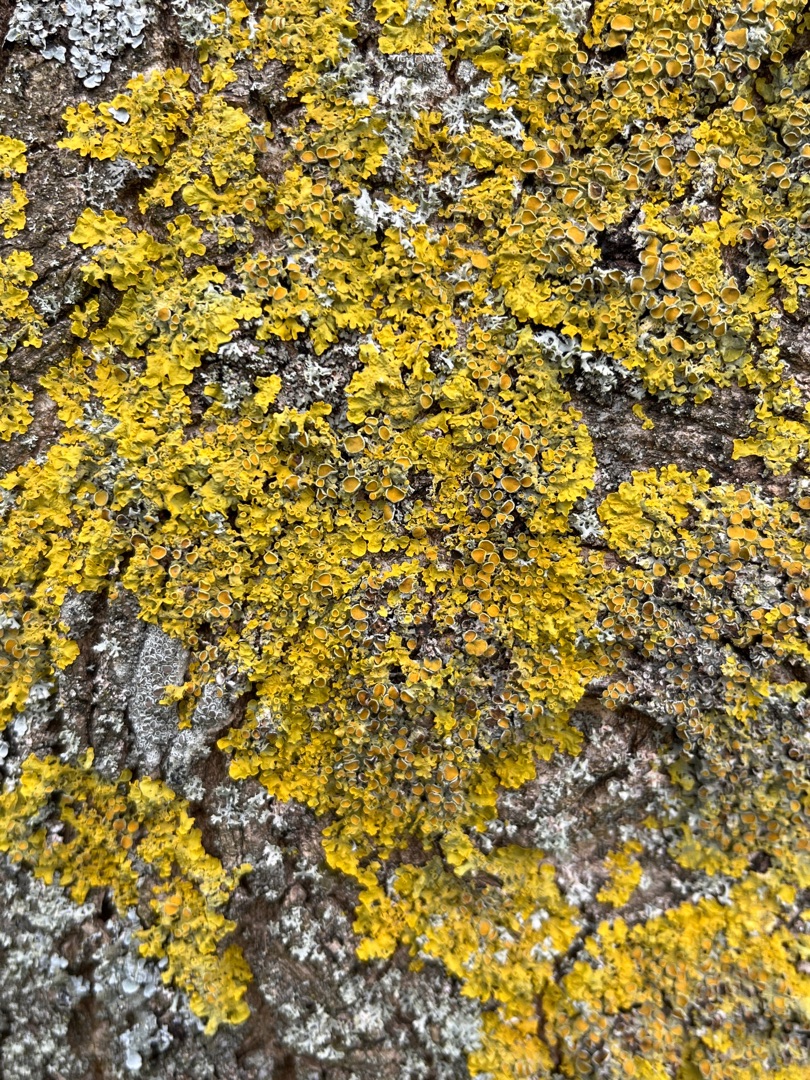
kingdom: Fungi
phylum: Ascomycota
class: Lecanoromycetes
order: Teloschistales
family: Teloschistaceae
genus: Xanthoria
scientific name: Xanthoria parietina
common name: Almindelig væggelav
